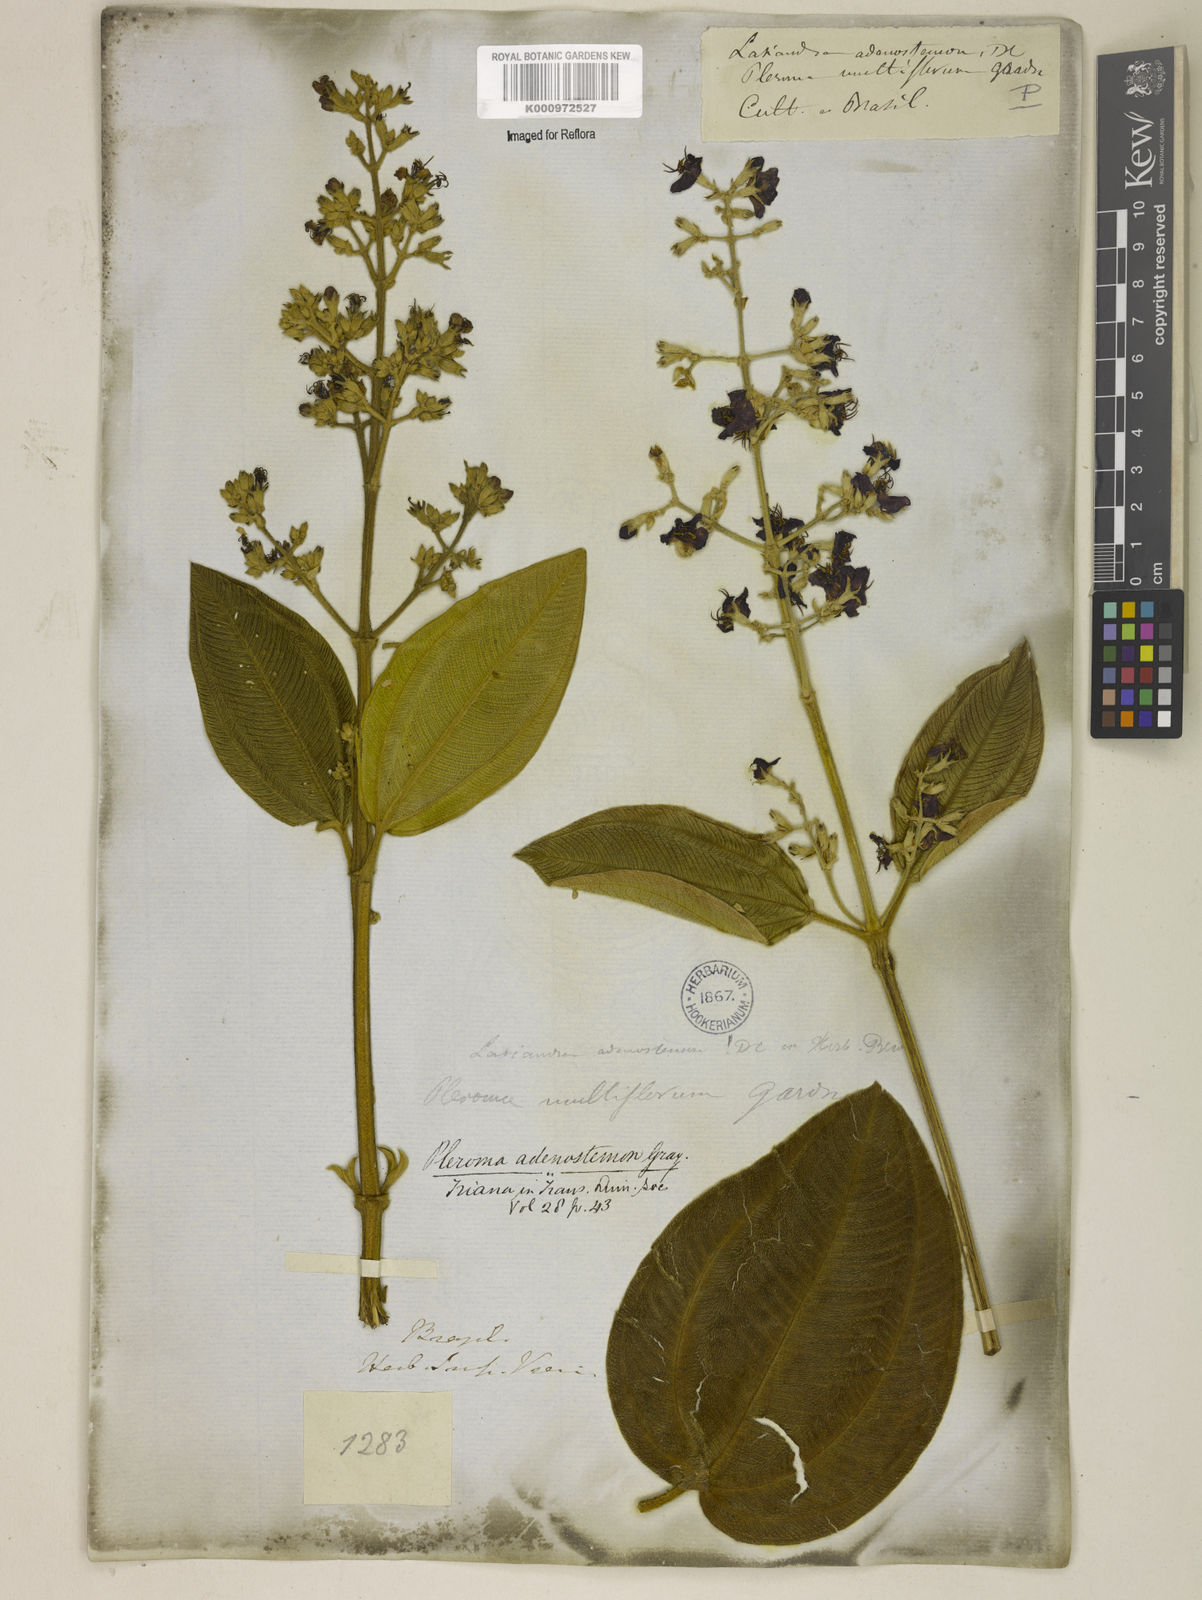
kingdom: Plantae
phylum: Tracheophyta
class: Magnoliopsida
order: Myrtales
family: Melastomataceae
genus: Pleroma
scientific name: Pleroma heteromallum
